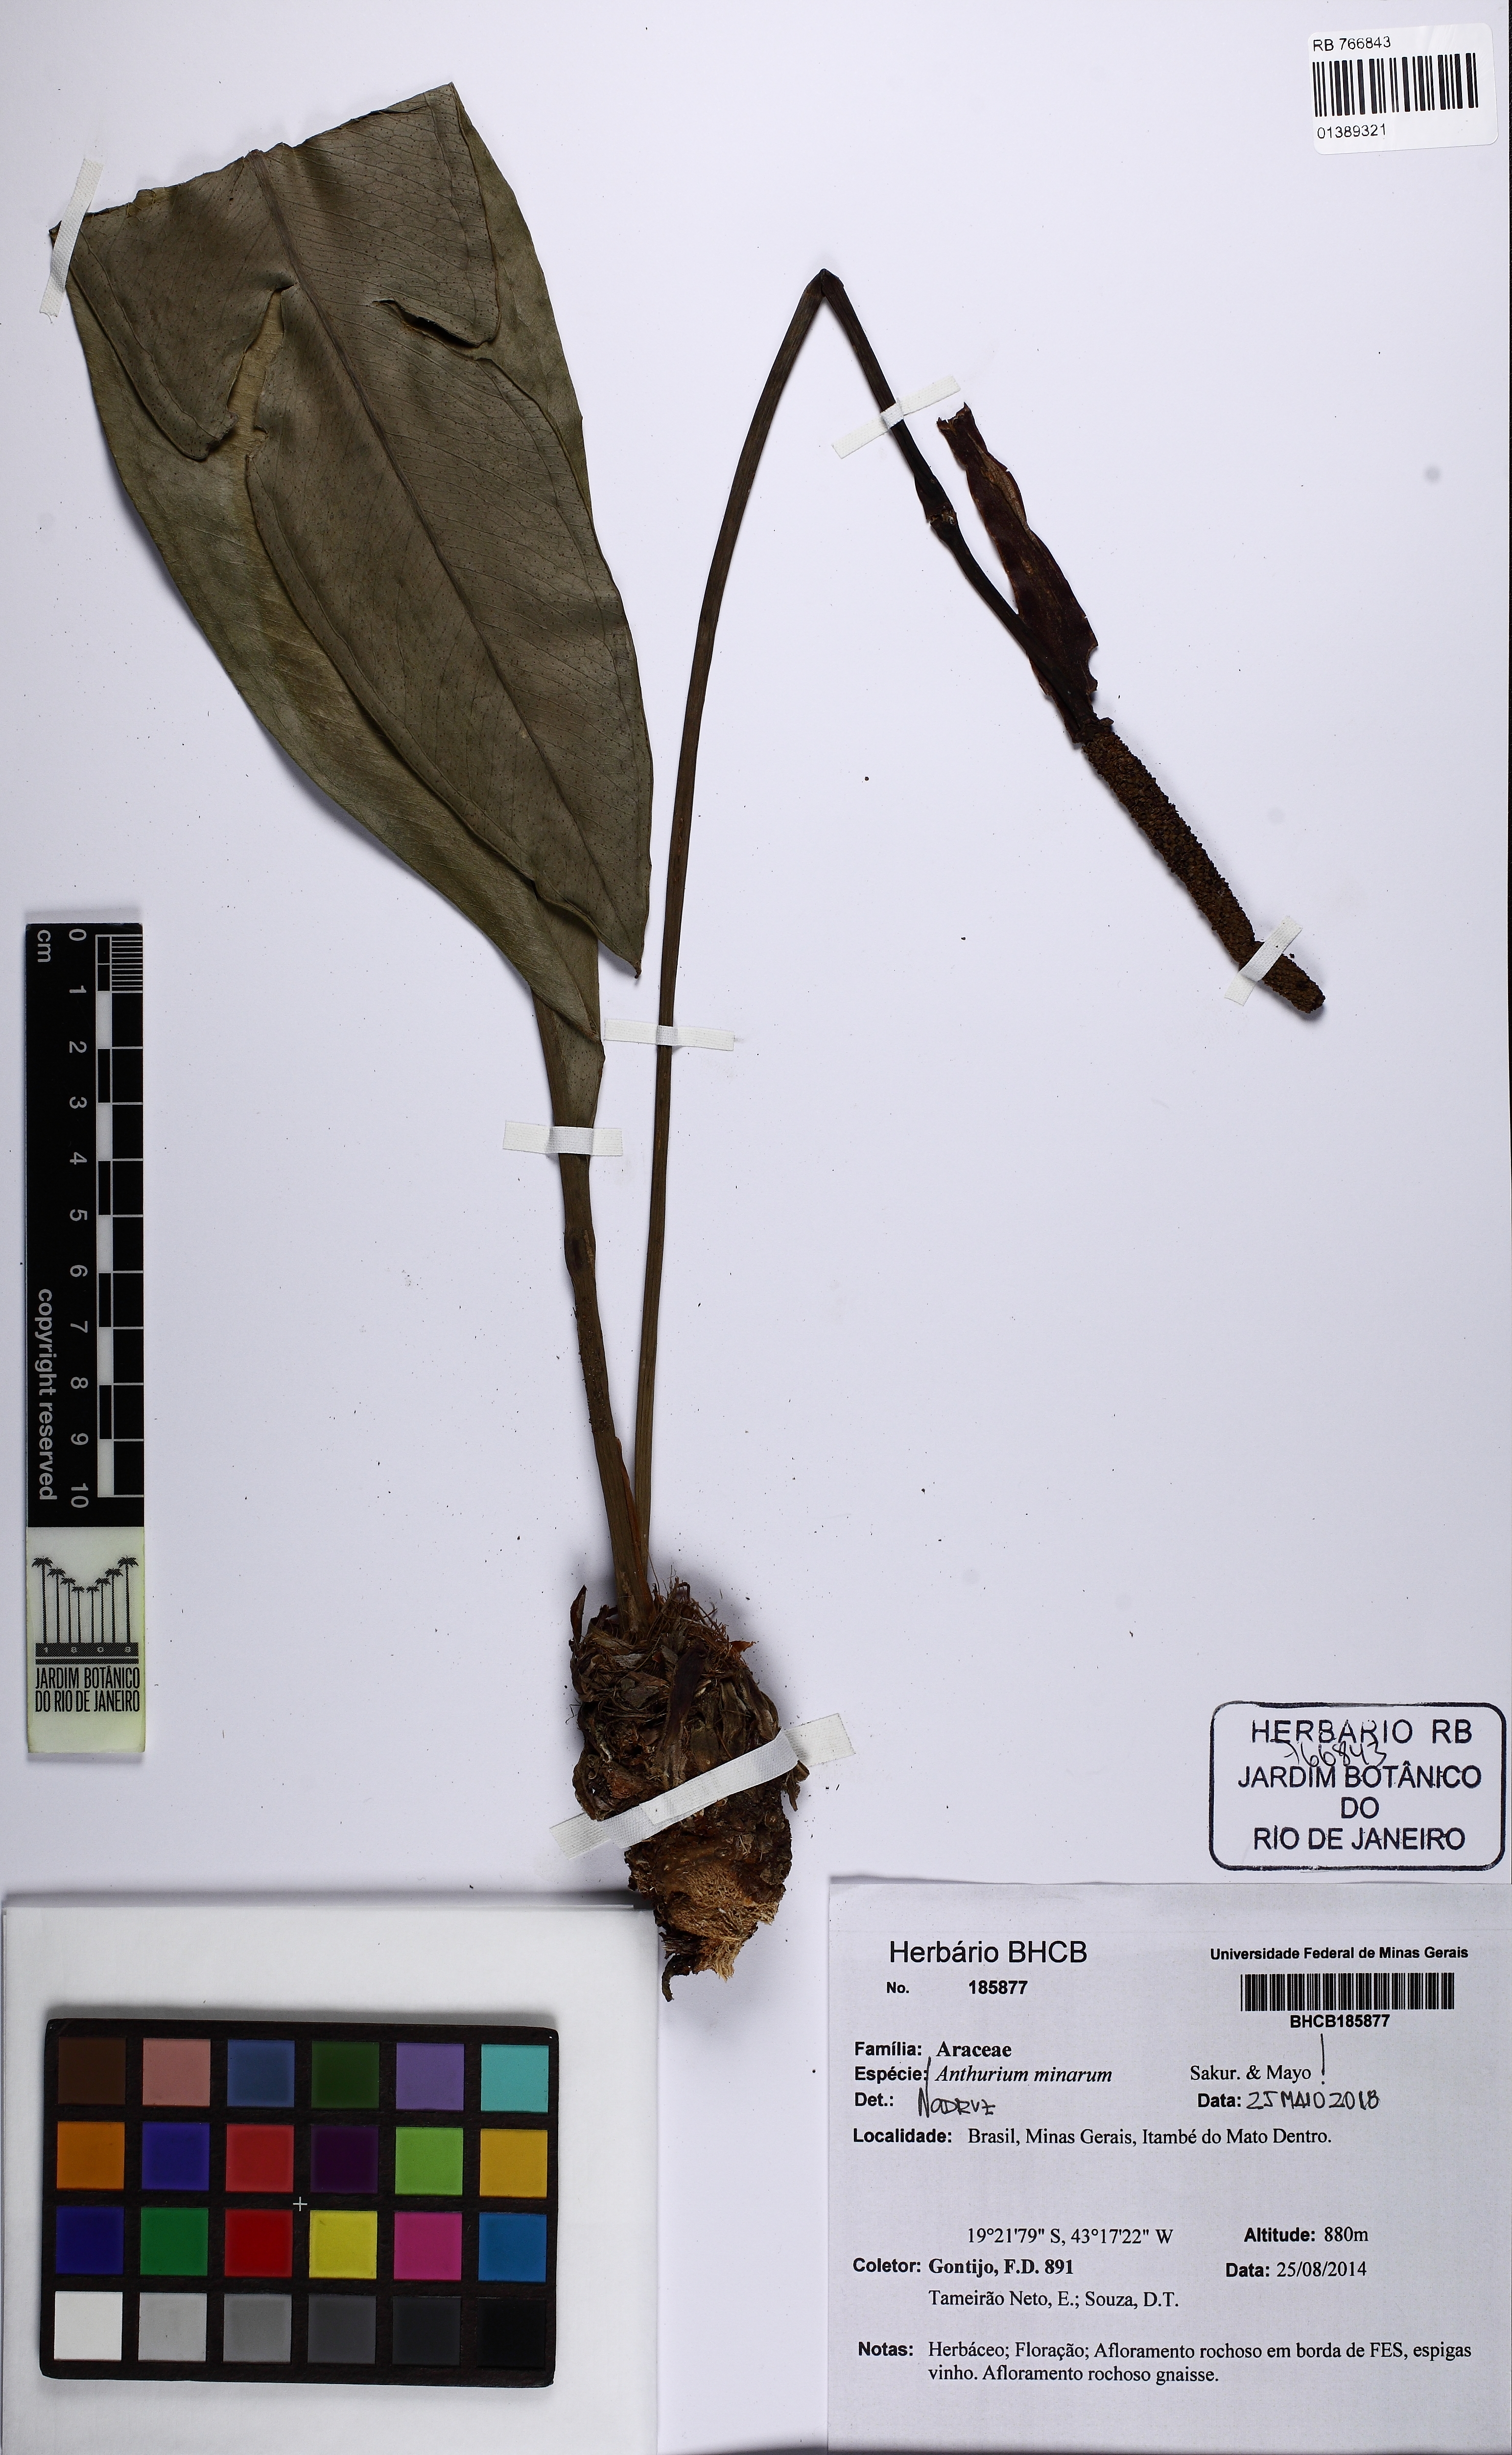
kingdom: Plantae
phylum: Tracheophyta
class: Liliopsida
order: Alismatales
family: Araceae
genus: Anthurium
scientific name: Anthurium minarum
